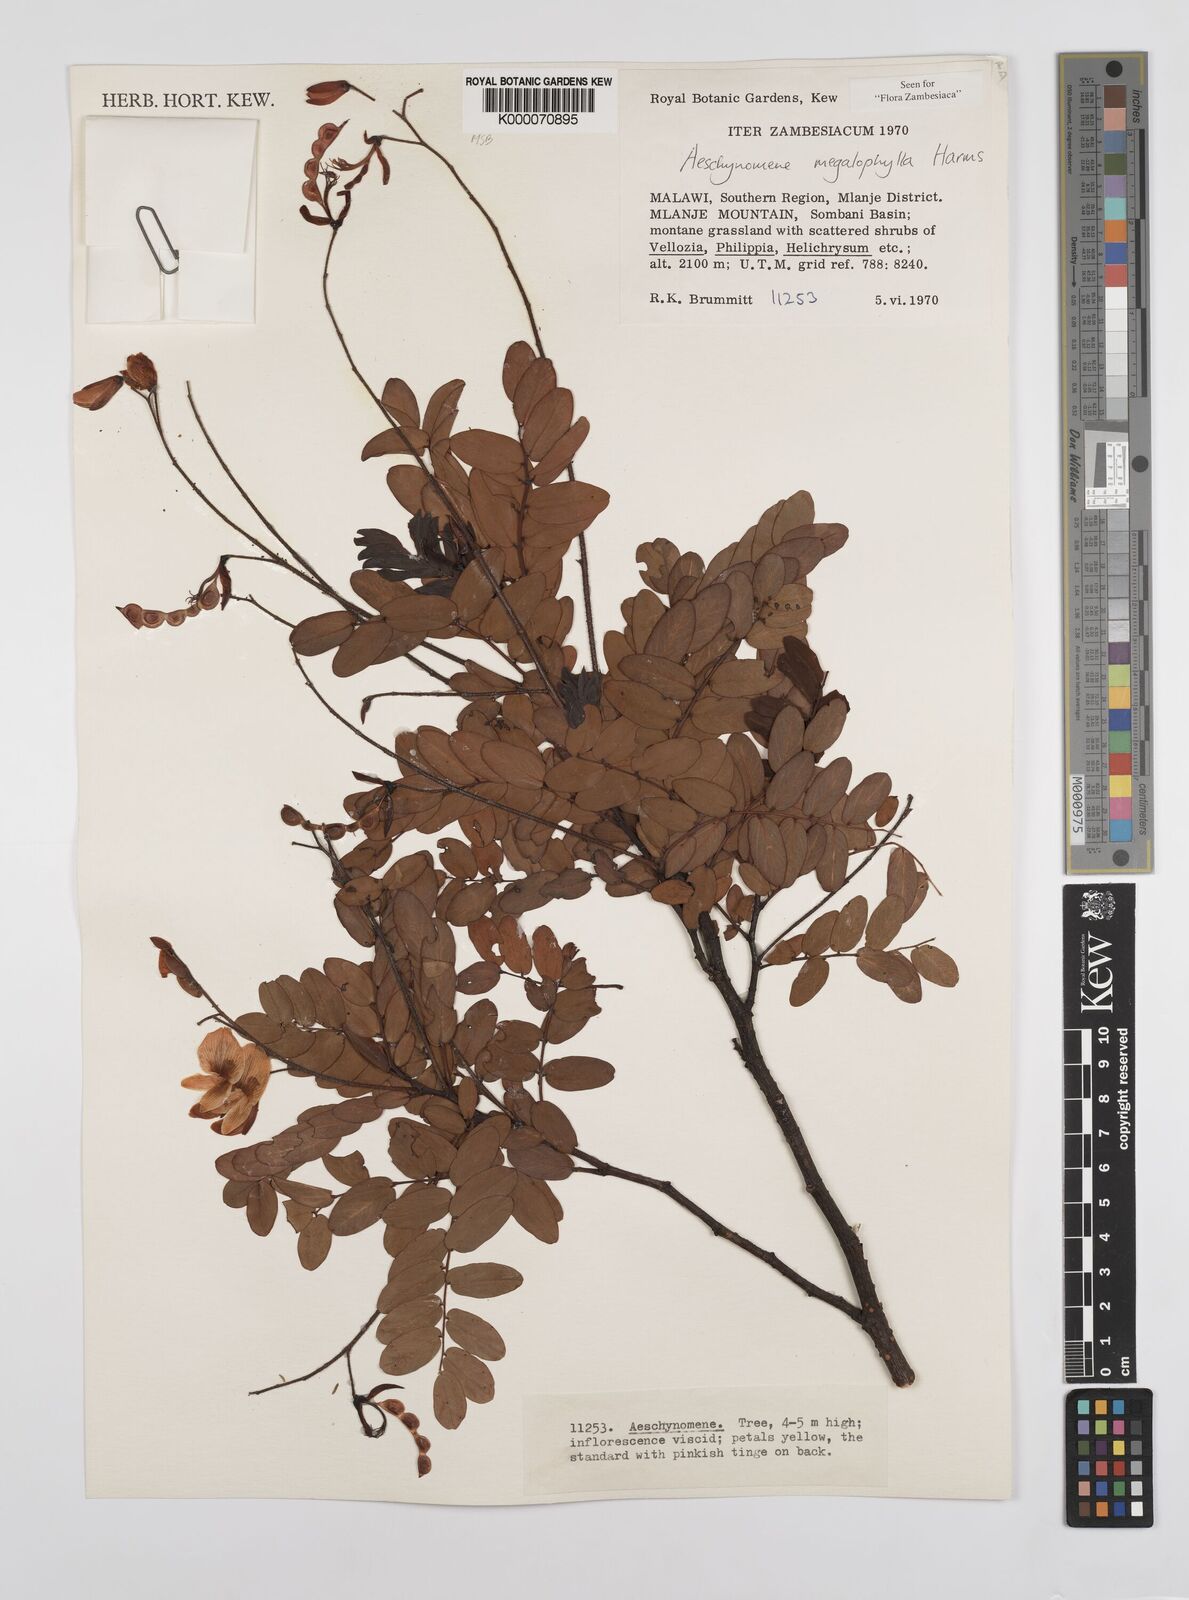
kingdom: Plantae
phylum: Tracheophyta
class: Magnoliopsida
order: Fabales
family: Fabaceae
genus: Aeschynomene
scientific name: Aeschynomene megalophylla
